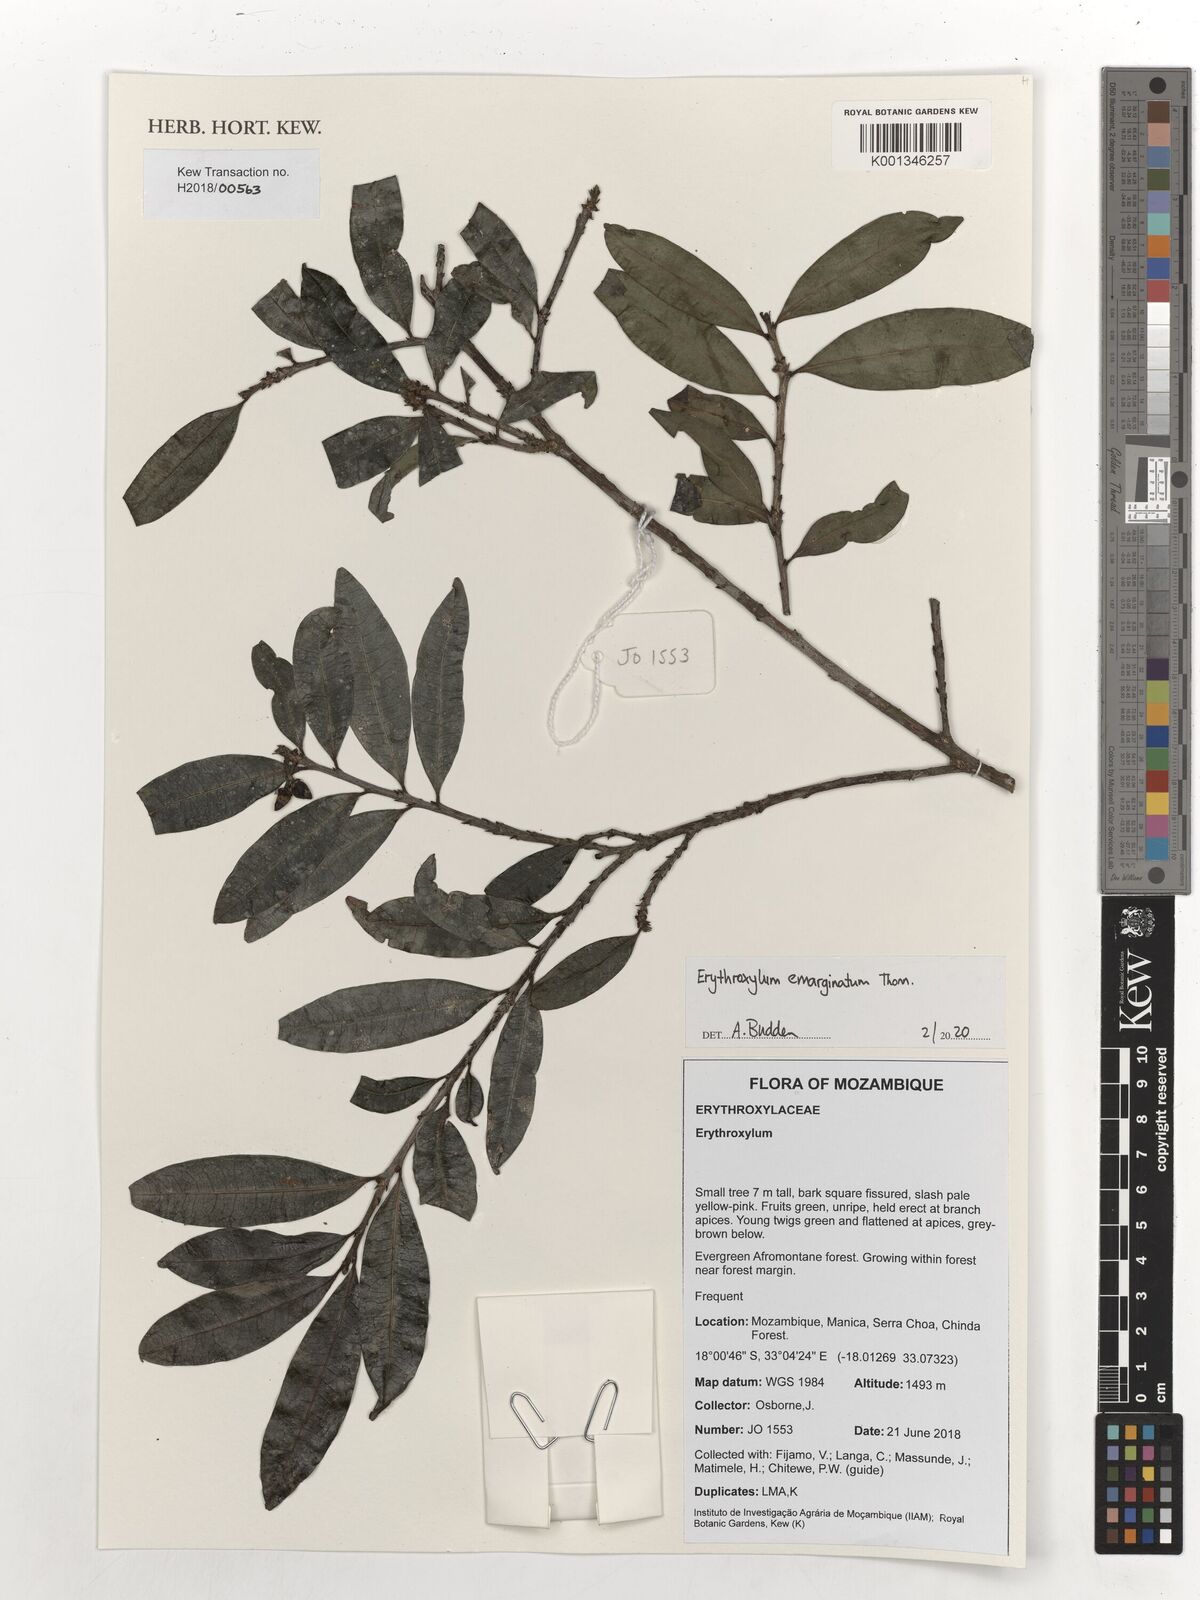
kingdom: Plantae
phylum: Tracheophyta
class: Magnoliopsida
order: Malpighiales
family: Erythroxylaceae
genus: Erythroxylum
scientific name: Erythroxylum emarginatum
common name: African coca-tree
